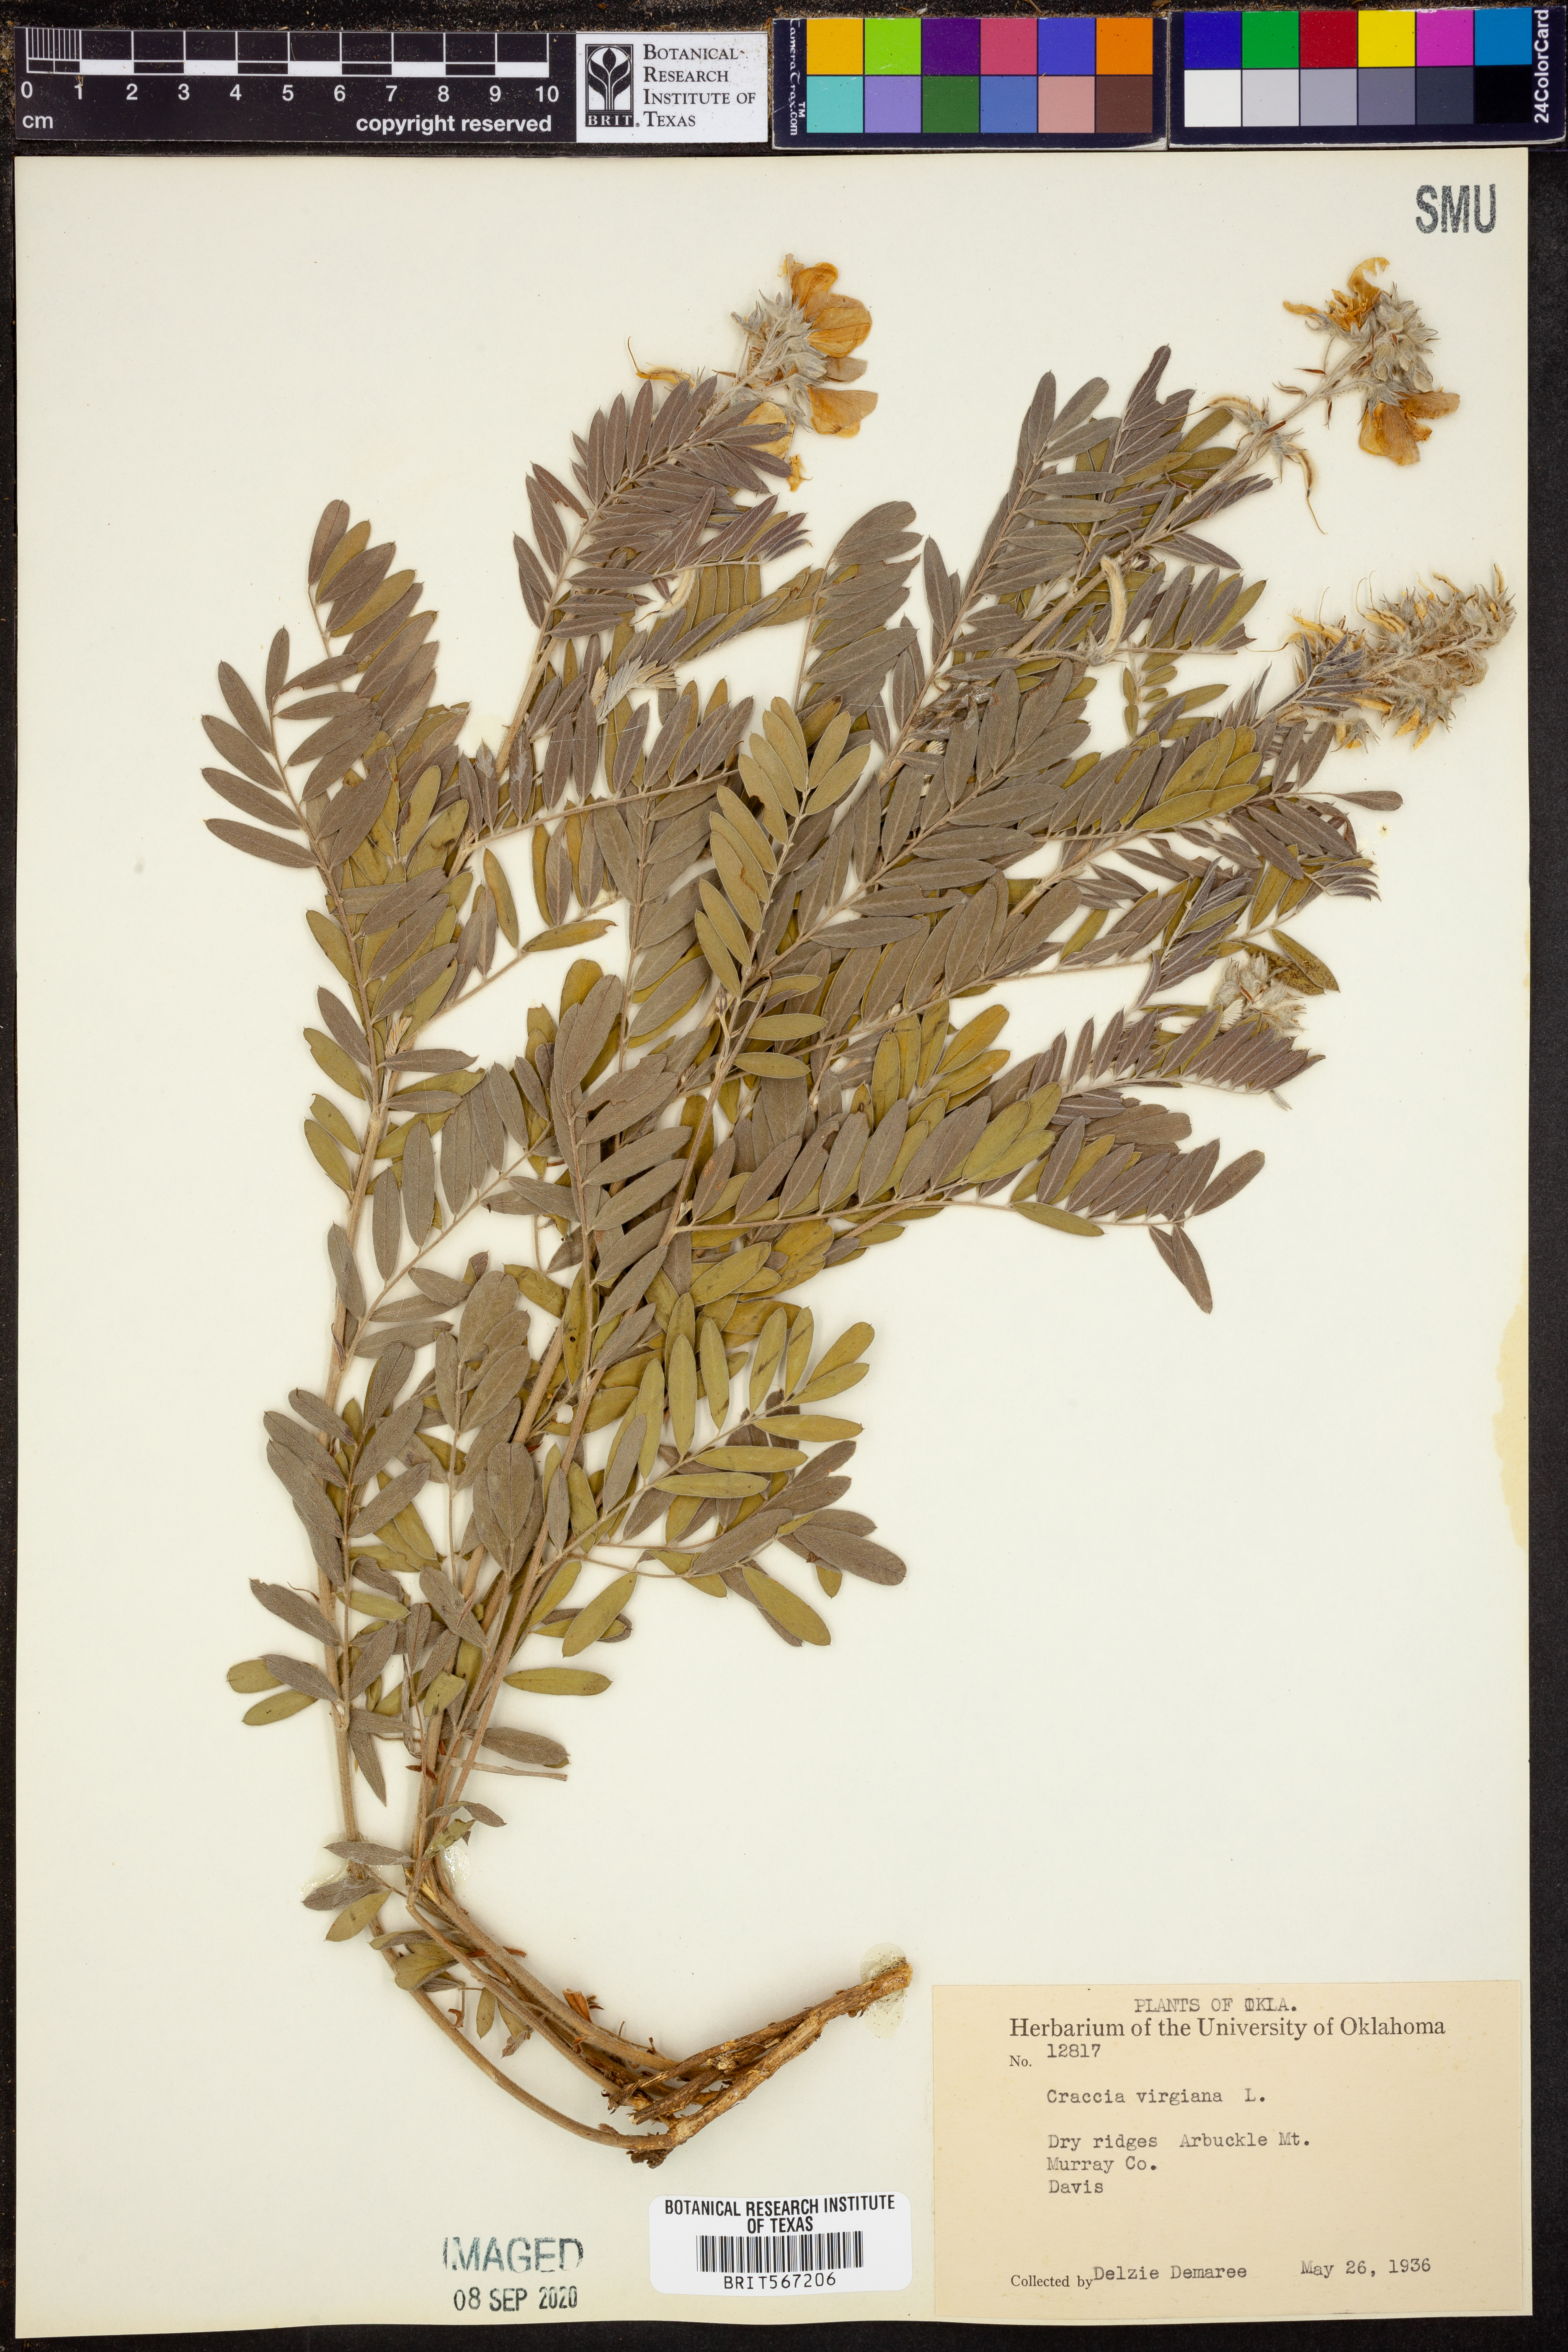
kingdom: Plantae
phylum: Tracheophyta
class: Magnoliopsida
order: Fabales
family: Fabaceae
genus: Tephrosia
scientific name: Tephrosia virginiana
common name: Rabbit-pea
